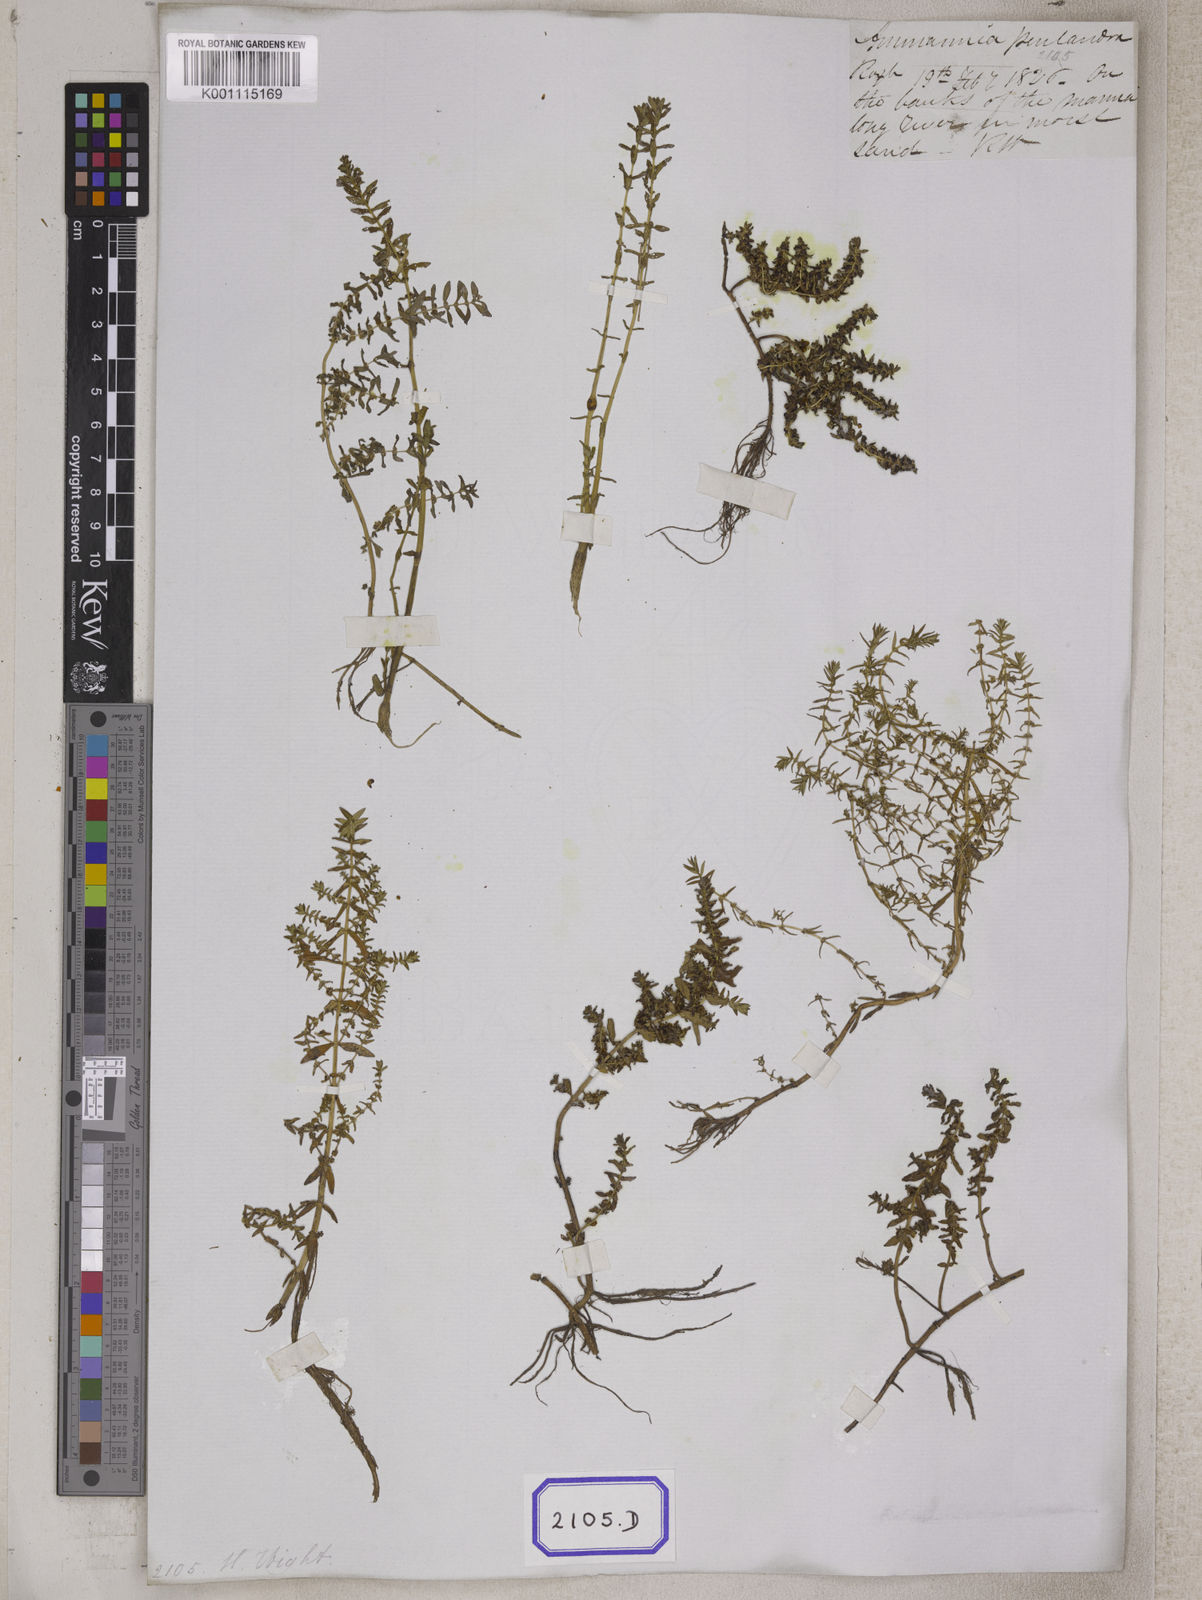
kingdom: Plantae
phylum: Tracheophyta
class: Magnoliopsida
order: Myrtales
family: Lythraceae
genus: Rotala
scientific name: Rotala indica
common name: Indian toothcup
